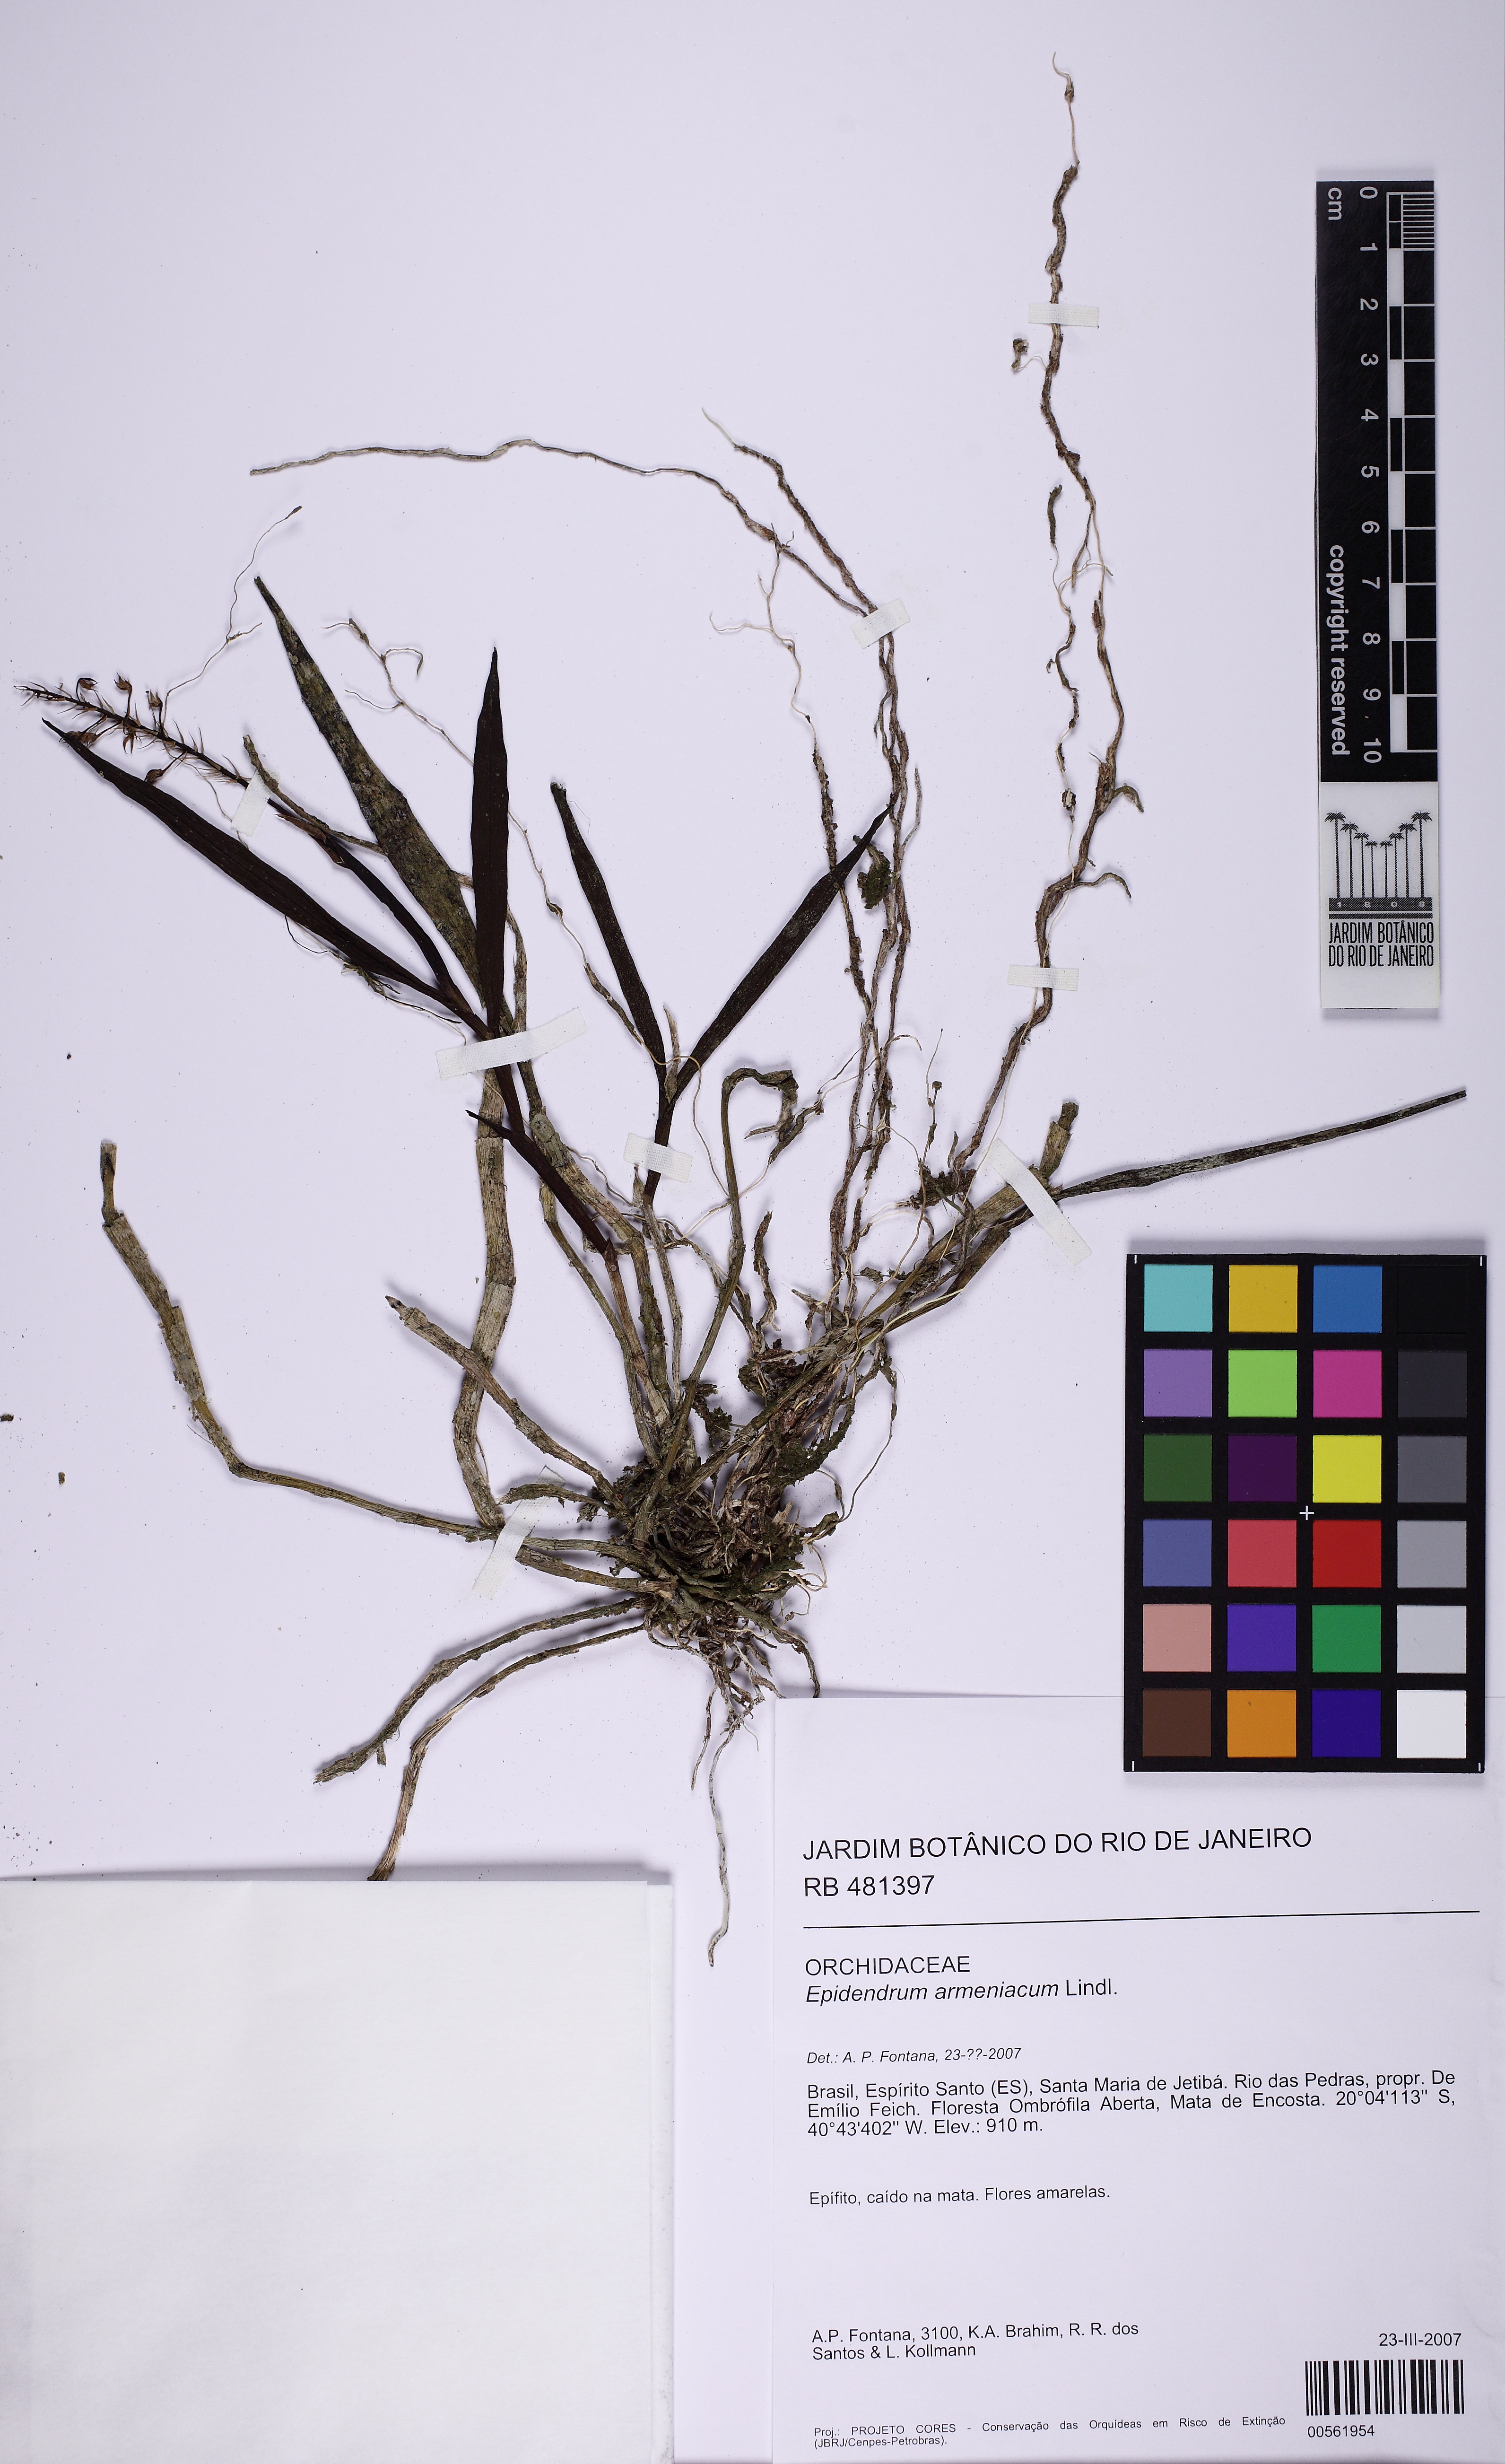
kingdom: Plantae
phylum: Tracheophyta
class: Liliopsida
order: Asparagales
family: Orchidaceae
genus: Epidendrum
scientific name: Epidendrum armeniacum
